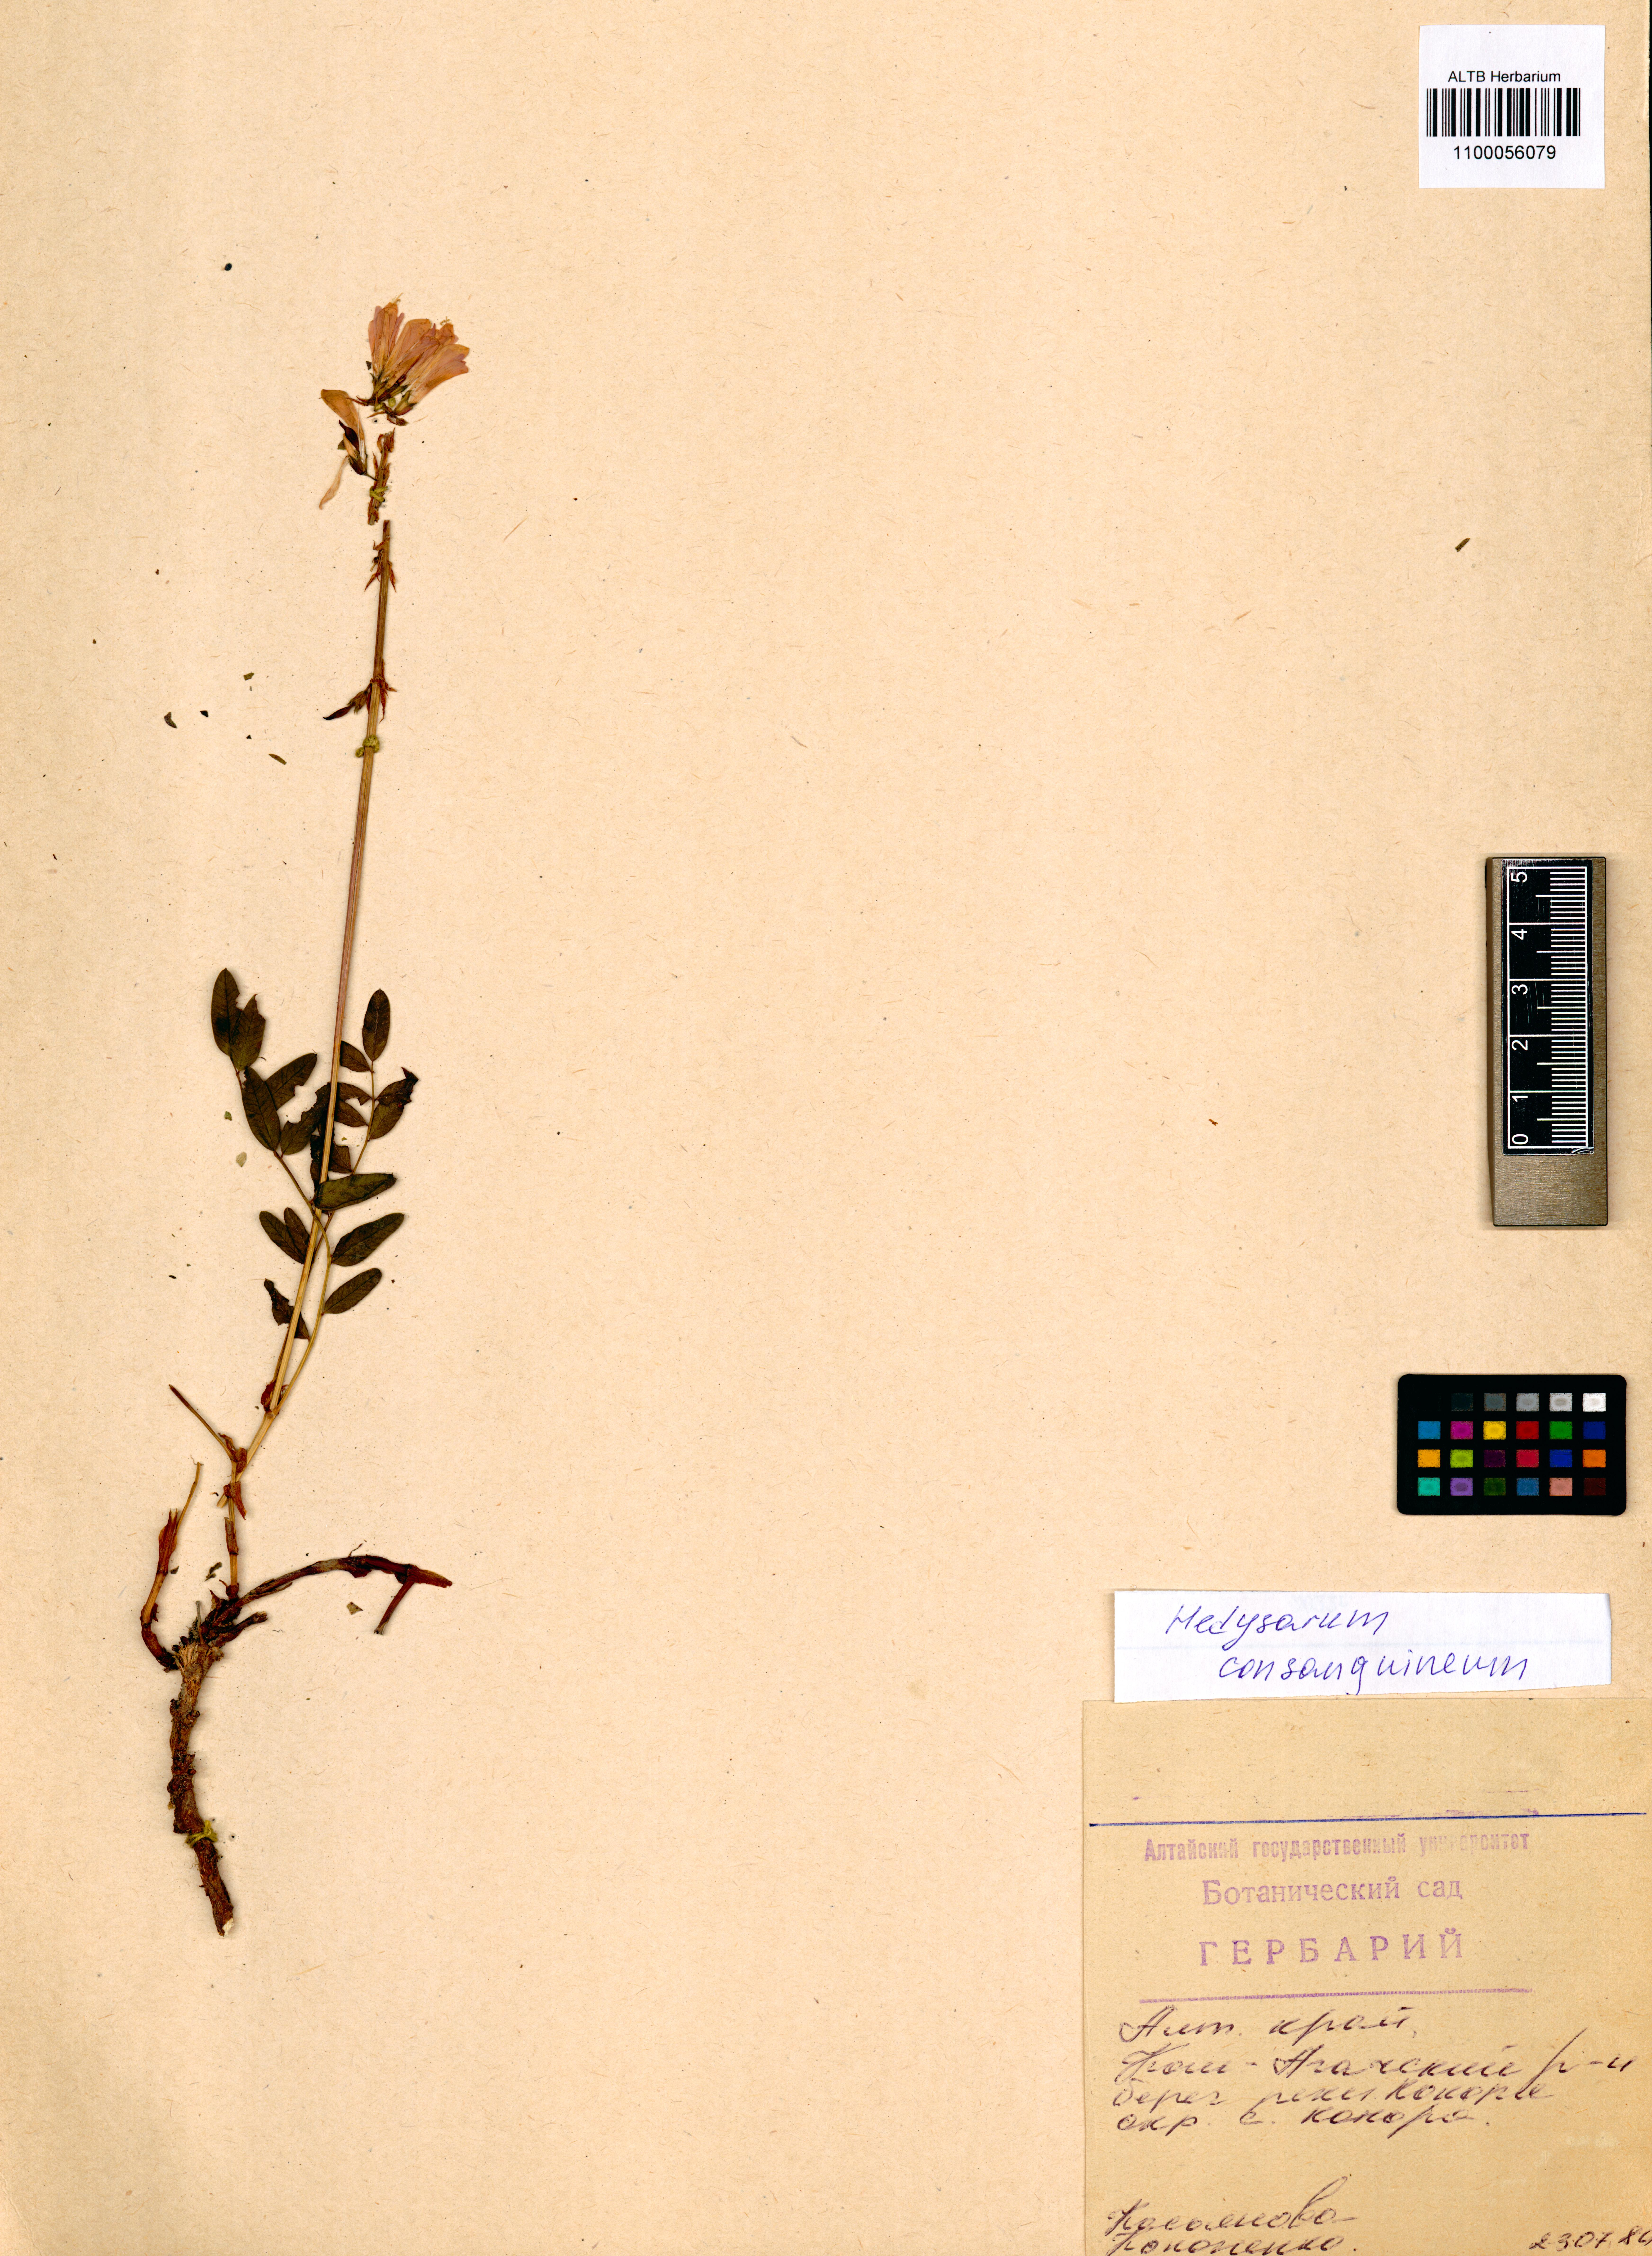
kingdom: Plantae
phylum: Tracheophyta
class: Magnoliopsida
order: Fabales
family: Fabaceae
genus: Hedysarum
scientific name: Hedysarum consanguineum
